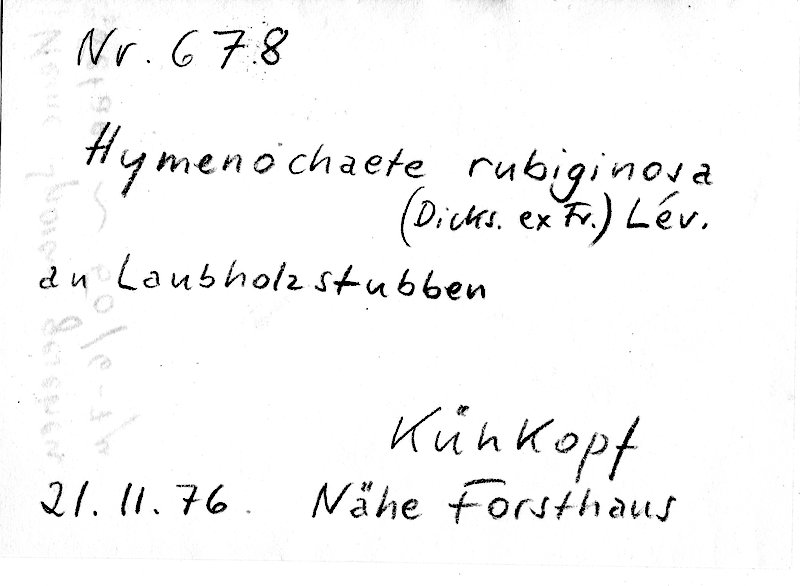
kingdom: Fungi
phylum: Basidiomycota
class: Agaricomycetes
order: Hymenochaetales
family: Hymenochaetaceae
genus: Hymenochaete
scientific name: Hymenochaete rubiginosa
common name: Oak curtain crust
